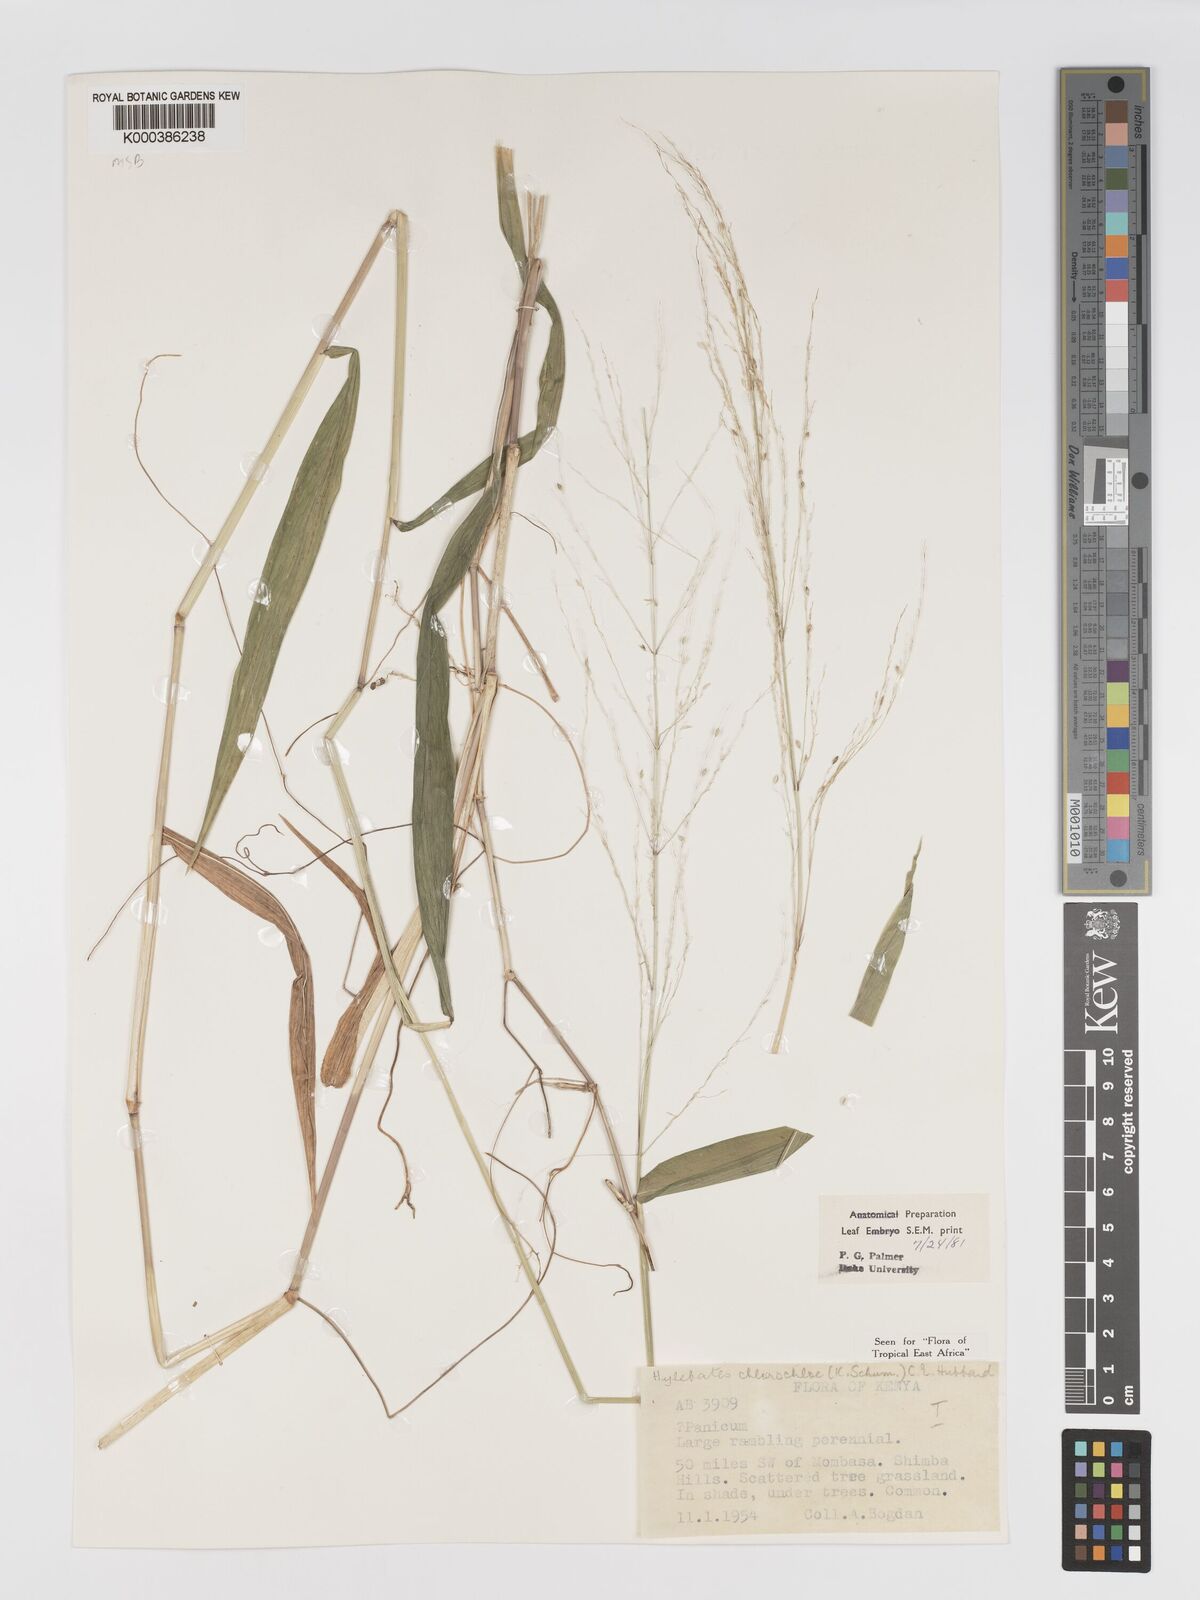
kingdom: Plantae
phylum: Tracheophyta
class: Liliopsida
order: Poales
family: Poaceae
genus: Hylebates
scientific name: Hylebates chlorochloe
